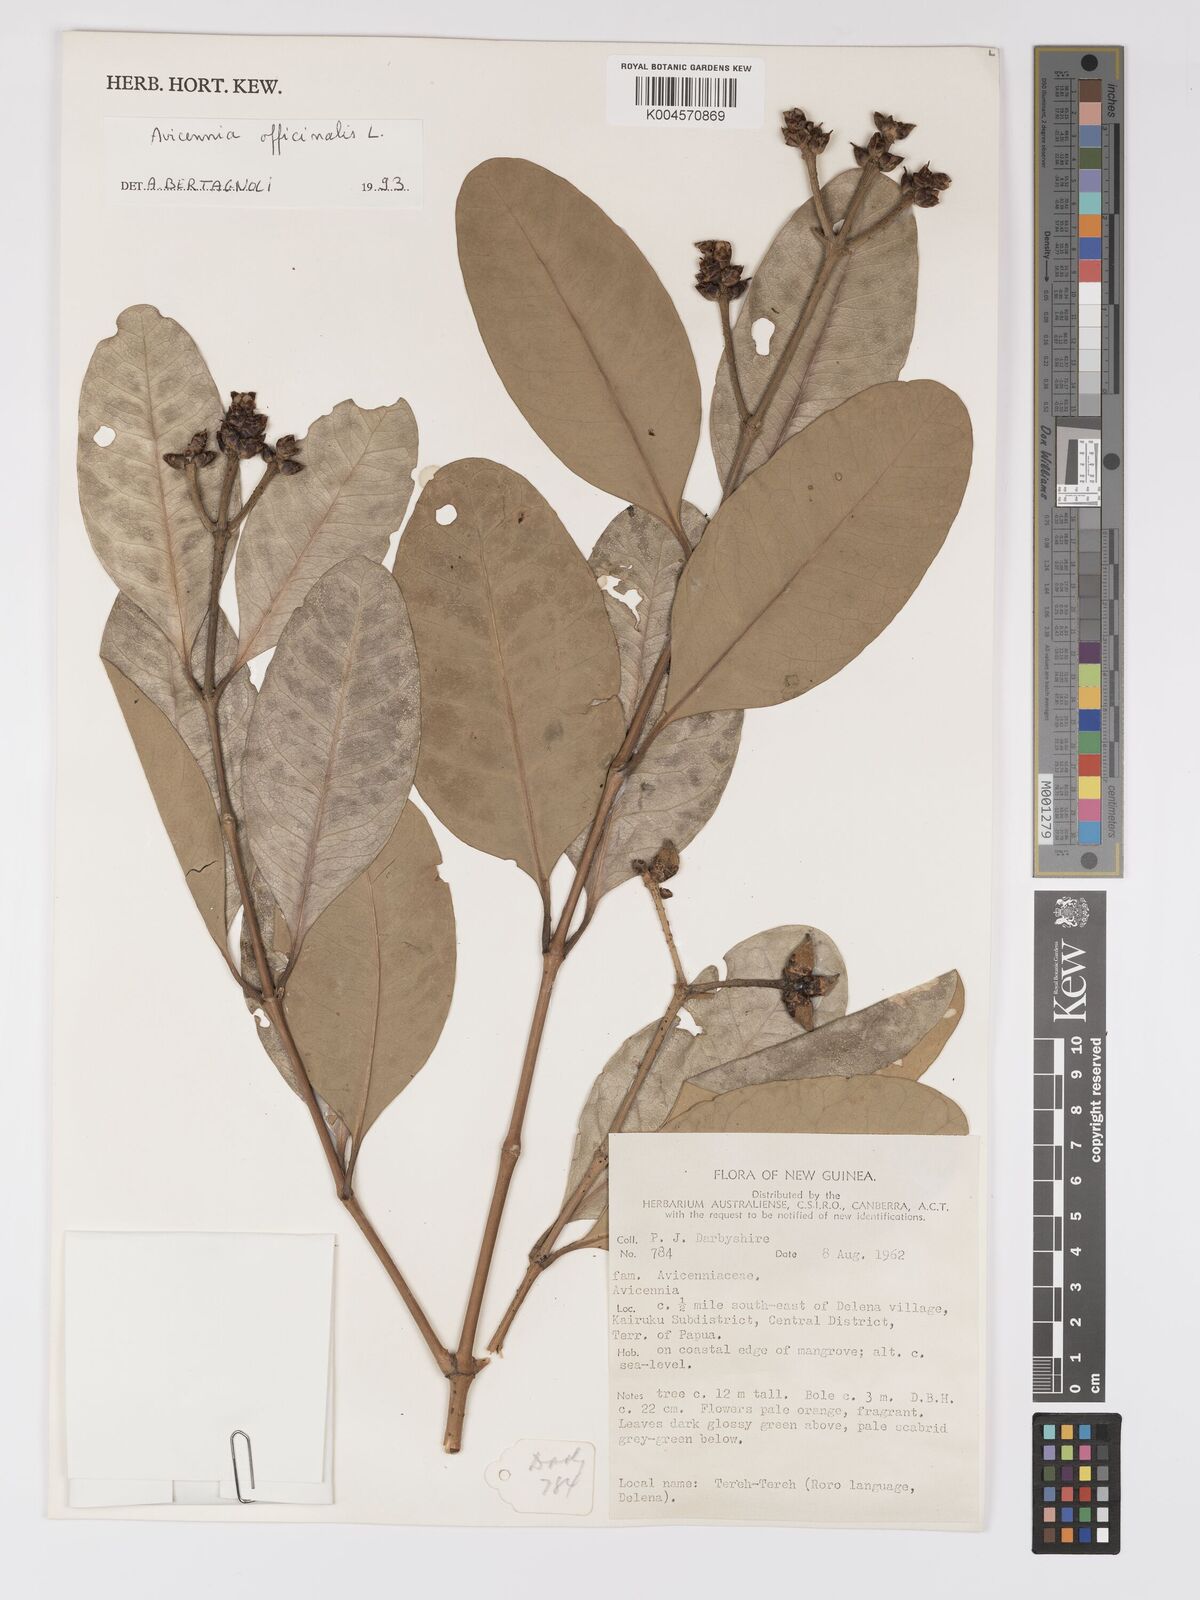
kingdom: Plantae
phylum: Tracheophyta
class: Magnoliopsida
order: Lamiales
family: Acanthaceae
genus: Avicennia
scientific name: Avicennia officinalis
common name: Baen
